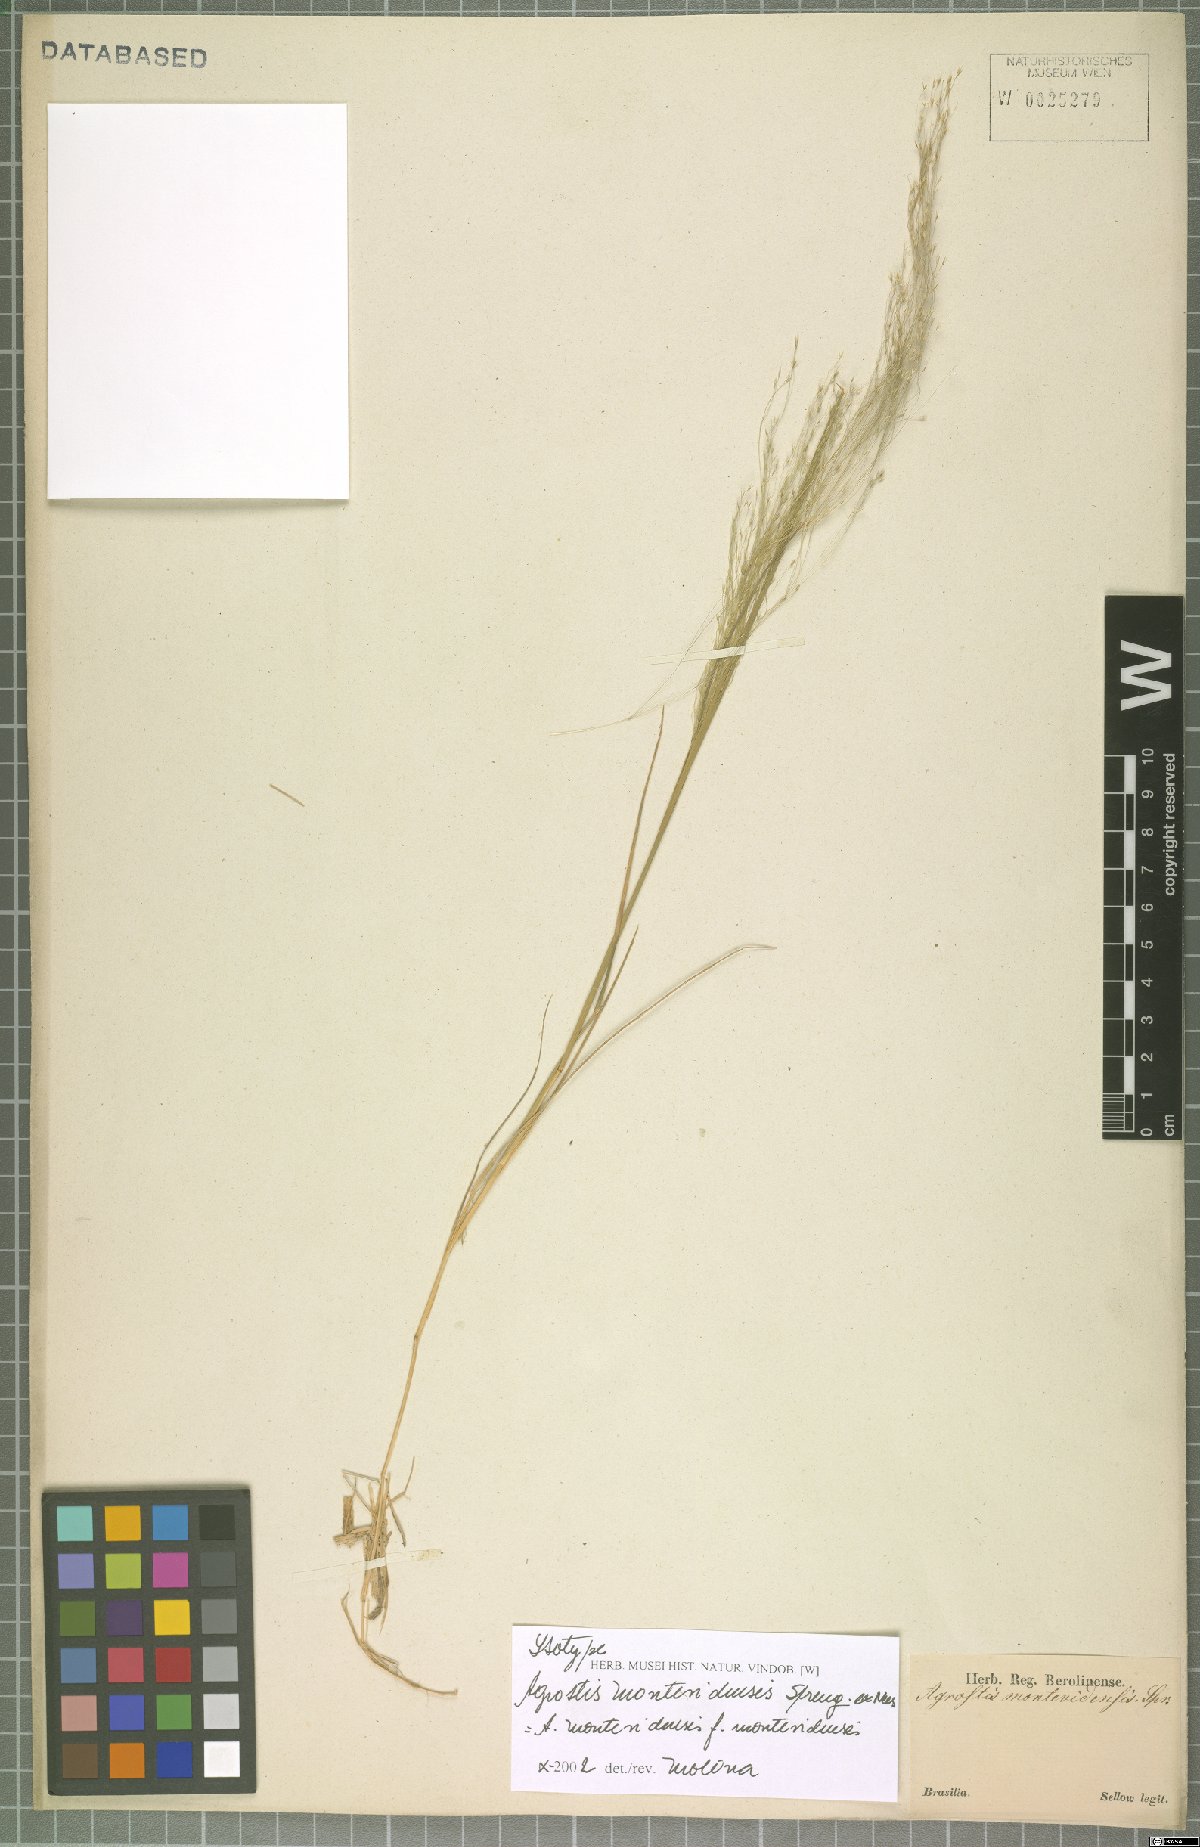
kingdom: Plantae
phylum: Tracheophyta
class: Liliopsida
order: Poales
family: Poaceae
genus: Agrostis
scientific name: Agrostis montevidensis
